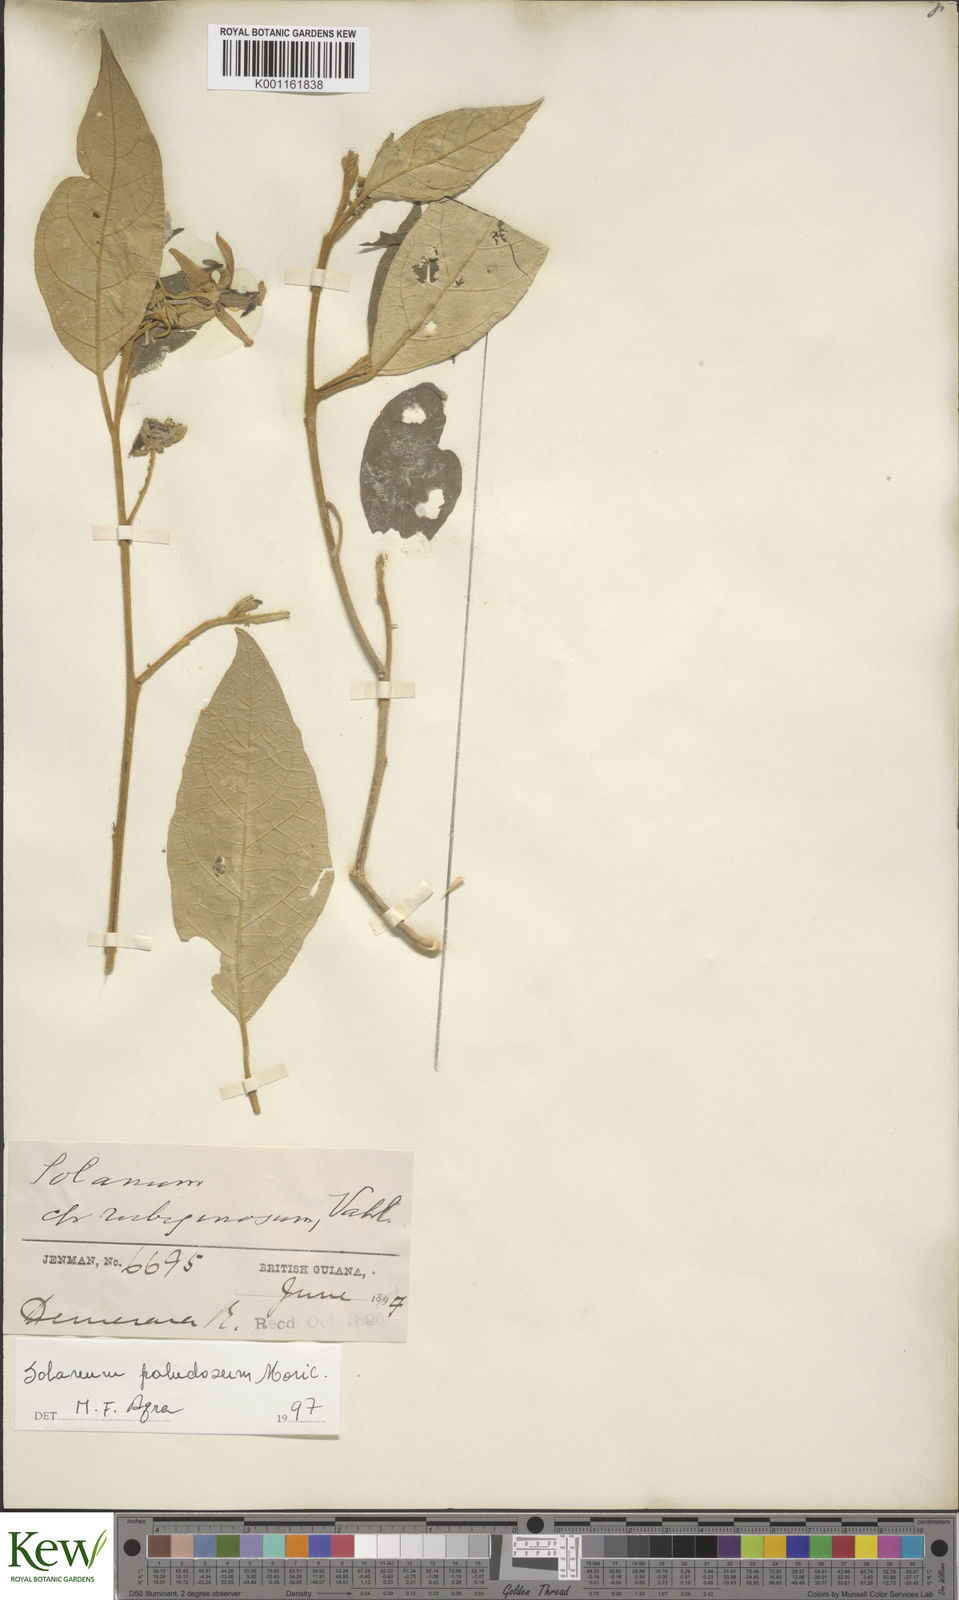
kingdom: Plantae
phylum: Tracheophyta
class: Magnoliopsida
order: Solanales
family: Solanaceae
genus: Solanum
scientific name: Solanum paludosum
